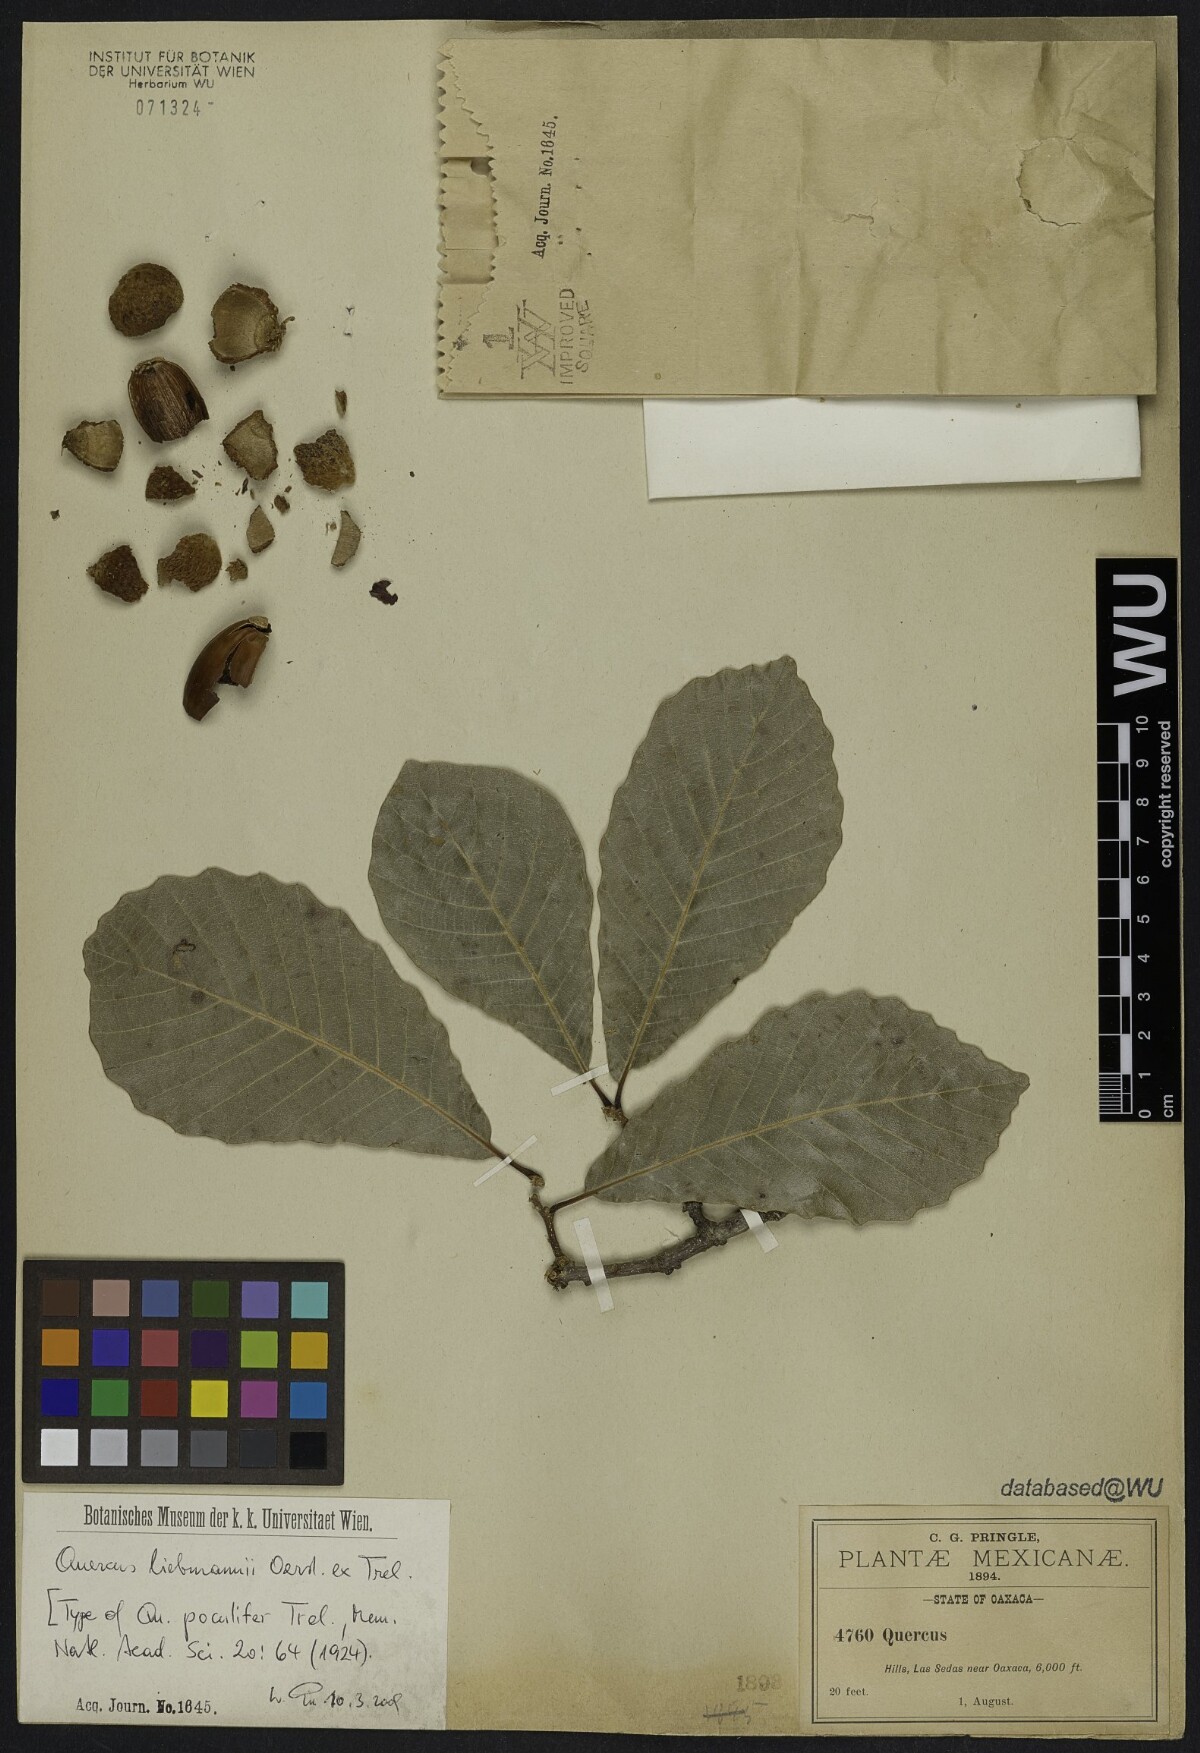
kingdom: Plantae
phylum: Tracheophyta
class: Magnoliopsida
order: Fagales
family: Fagaceae
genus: Quercus
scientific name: Quercus liebmannii
